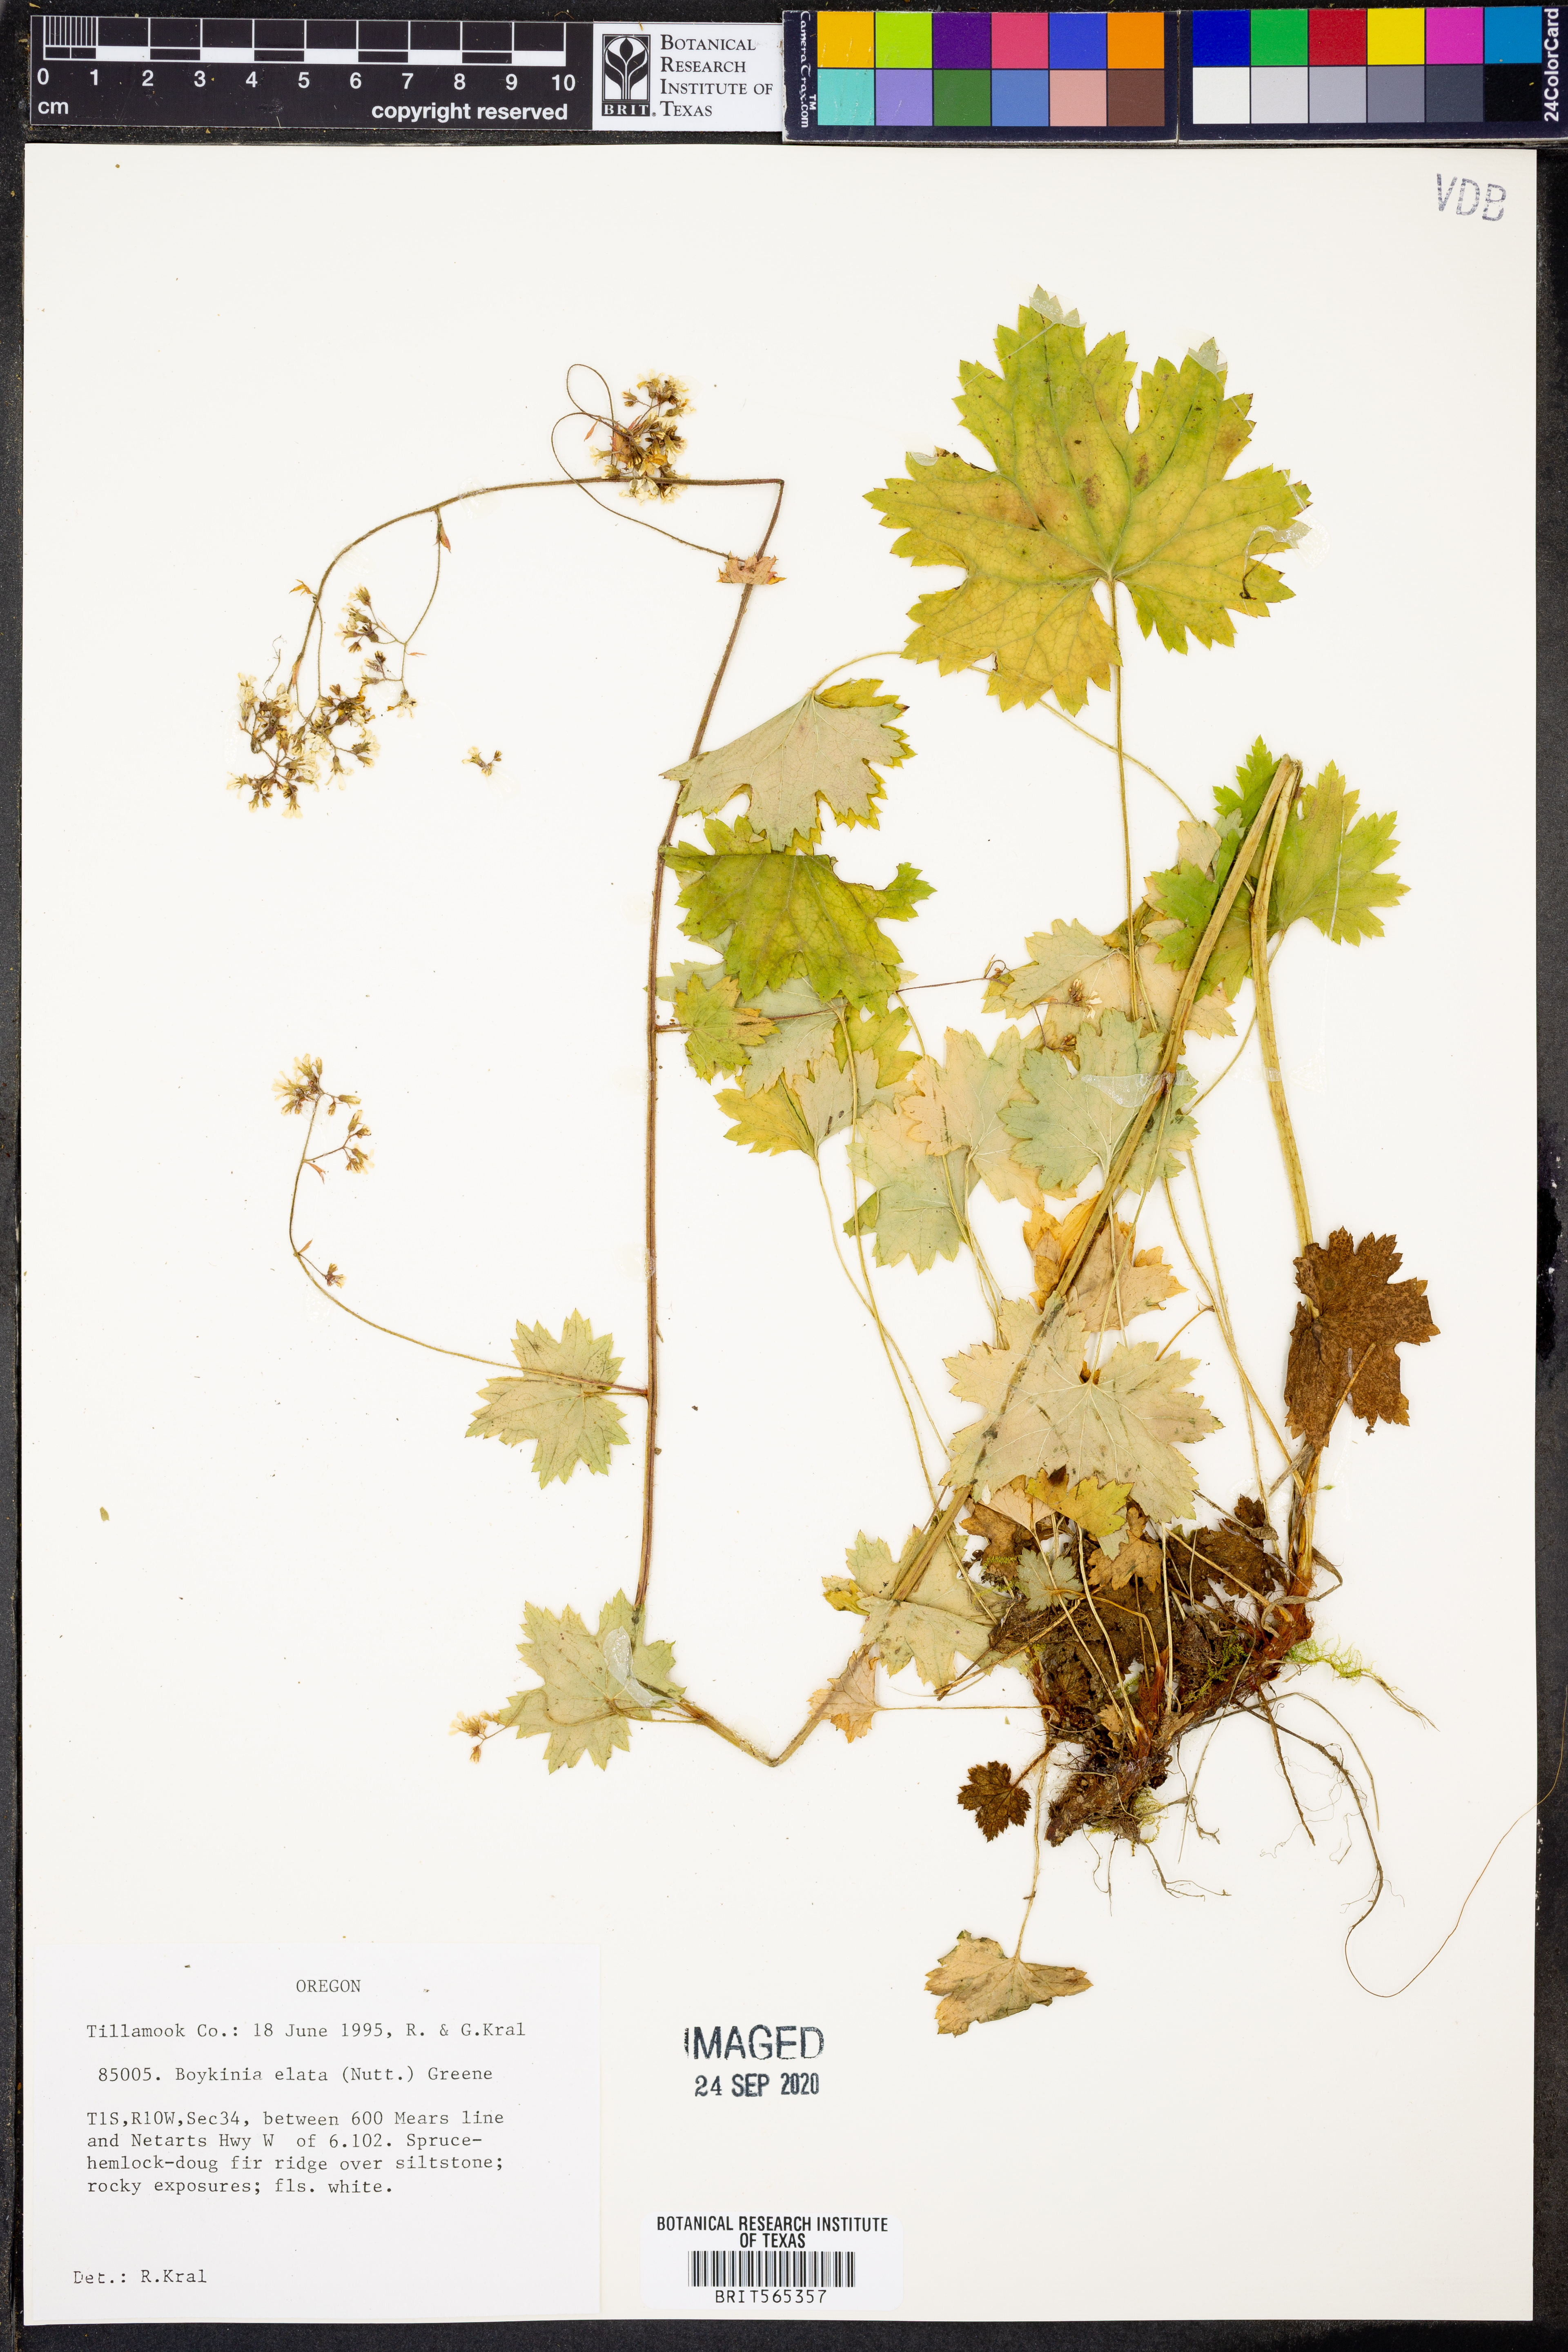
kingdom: Plantae
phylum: Tracheophyta
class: Magnoliopsida
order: Saxifragales
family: Saxifragaceae
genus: Boykinia
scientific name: Boykinia occidentalis
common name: Coast boykinia
